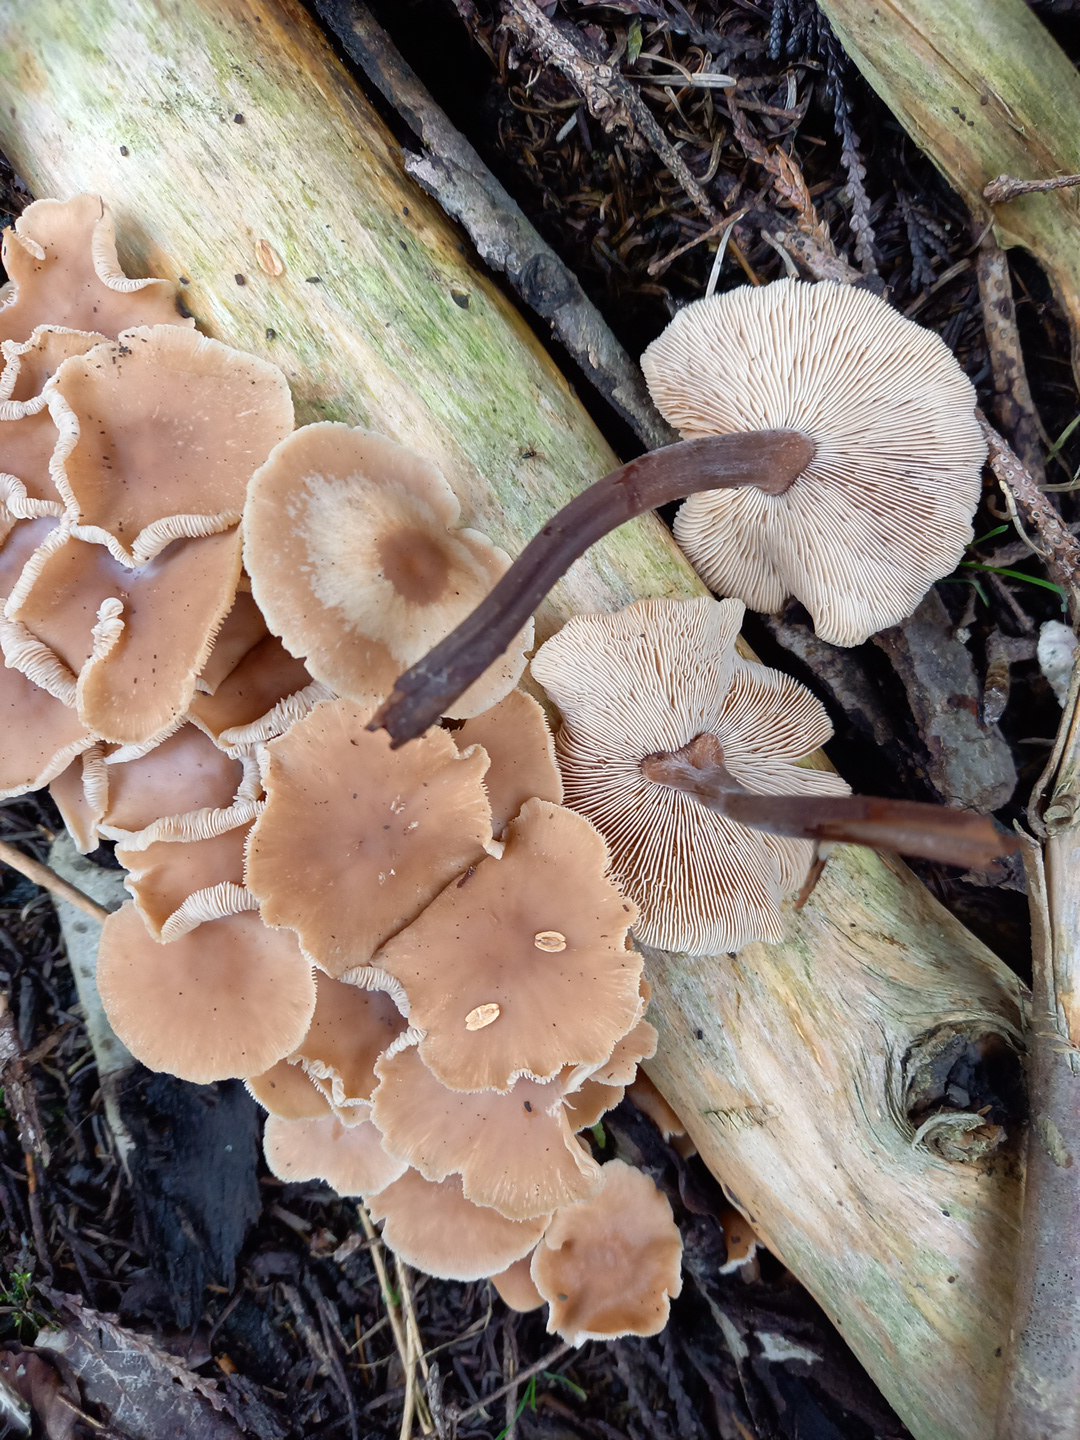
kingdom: Fungi
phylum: Basidiomycota
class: Agaricomycetes
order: Agaricales
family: Omphalotaceae
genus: Collybiopsis
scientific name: Collybiopsis confluens
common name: knippe-fladhat
